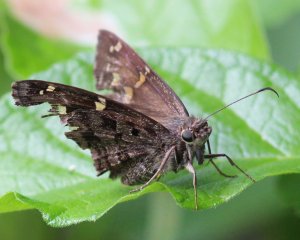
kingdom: Animalia
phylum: Arthropoda
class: Insecta
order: Lepidoptera
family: Hesperiidae
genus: Urbanus
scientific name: Urbanus dorantes
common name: Dorantes Longtail
